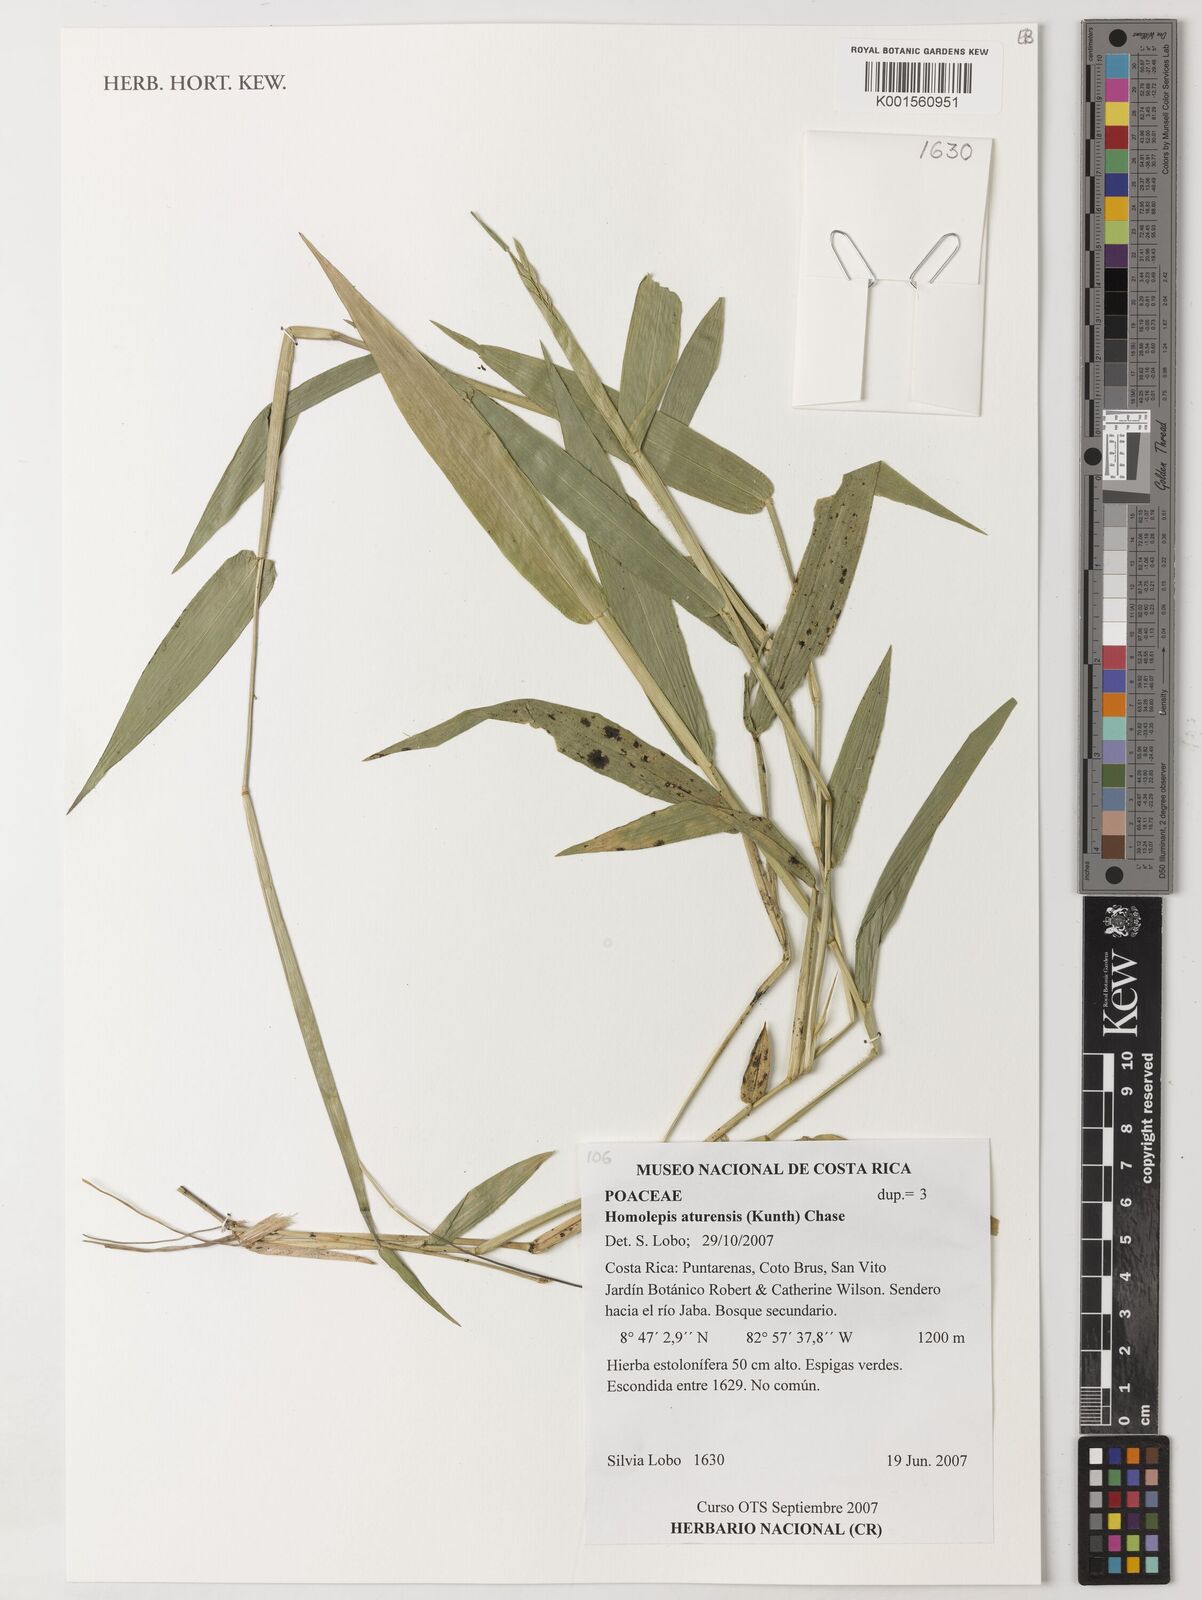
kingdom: Plantae
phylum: Tracheophyta
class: Liliopsida
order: Poales
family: Poaceae
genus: Homolepis
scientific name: Homolepis aturensis
